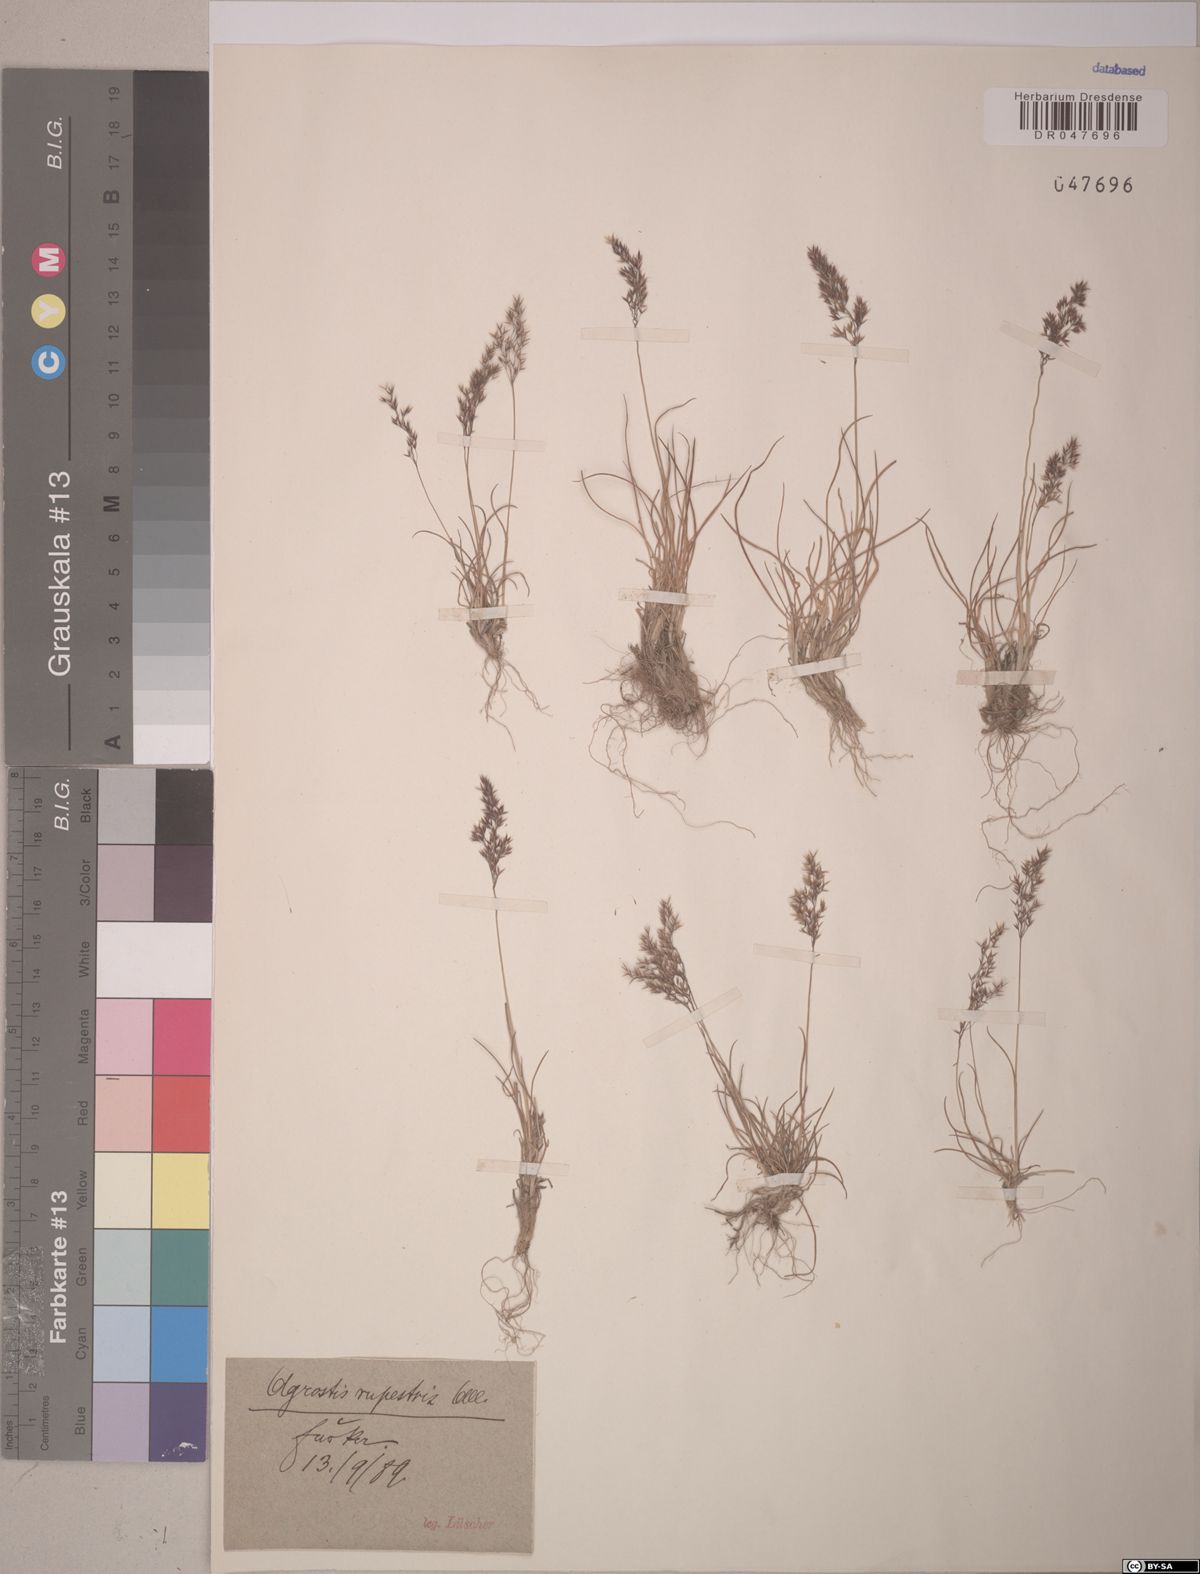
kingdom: Plantae
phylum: Tracheophyta
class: Liliopsida
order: Poales
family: Poaceae
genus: Agrostis
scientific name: Agrostis rupestris
